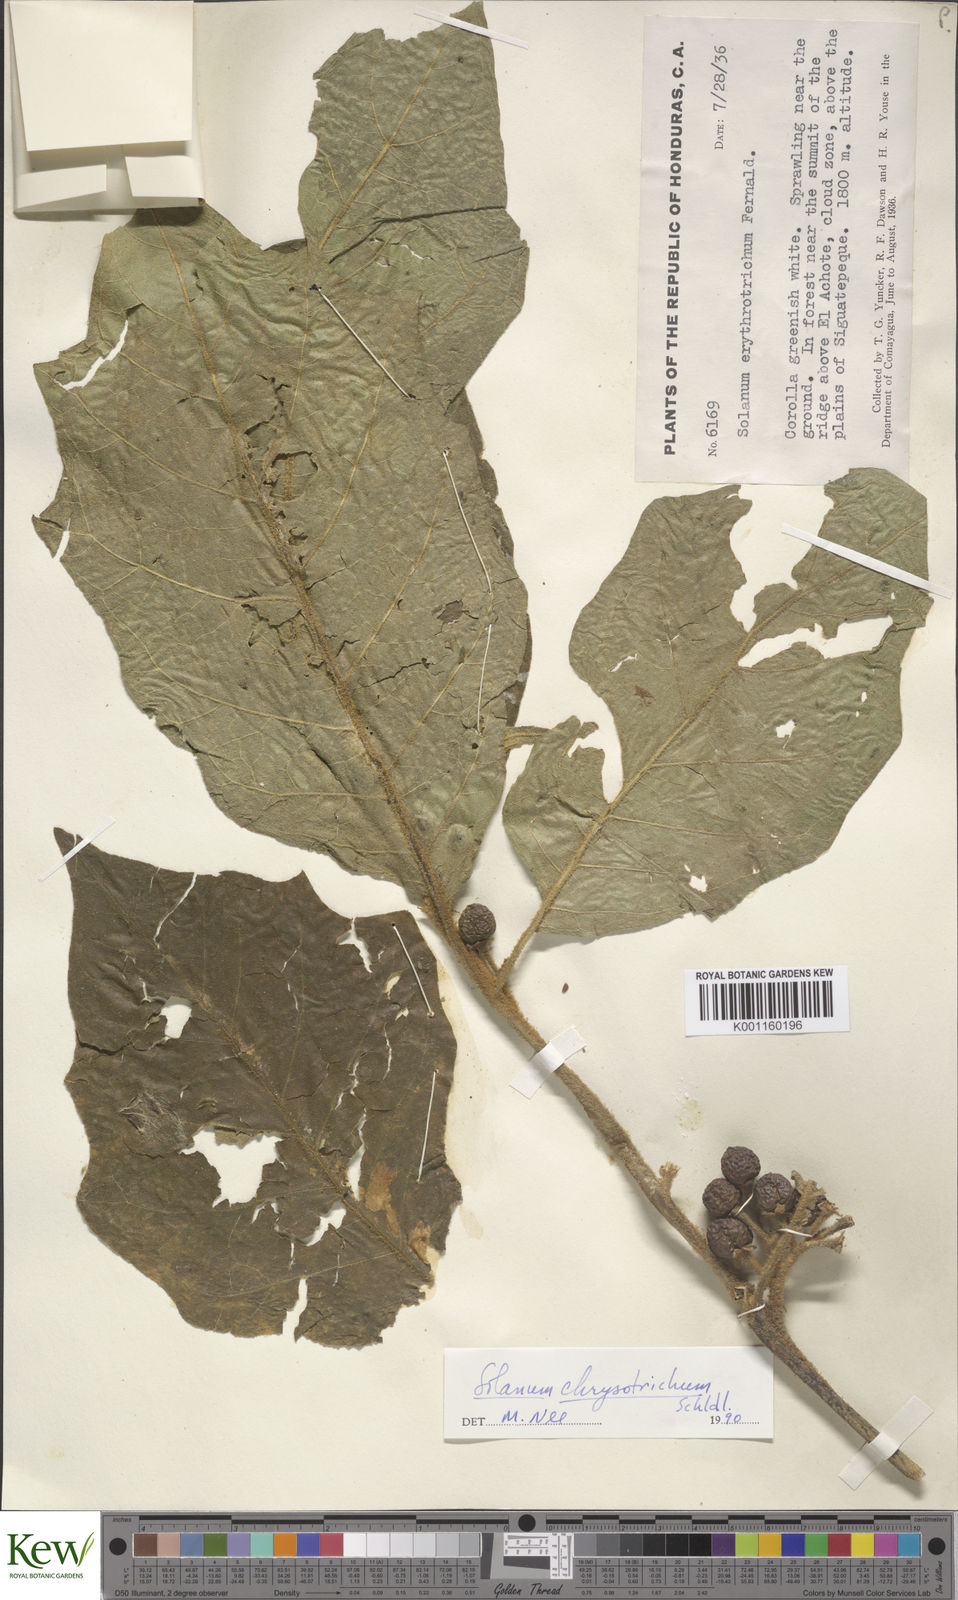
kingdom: Plantae
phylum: Tracheophyta
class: Magnoliopsida
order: Solanales
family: Solanaceae
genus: Solanum
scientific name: Solanum chrysotrichum
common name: Nightshade
